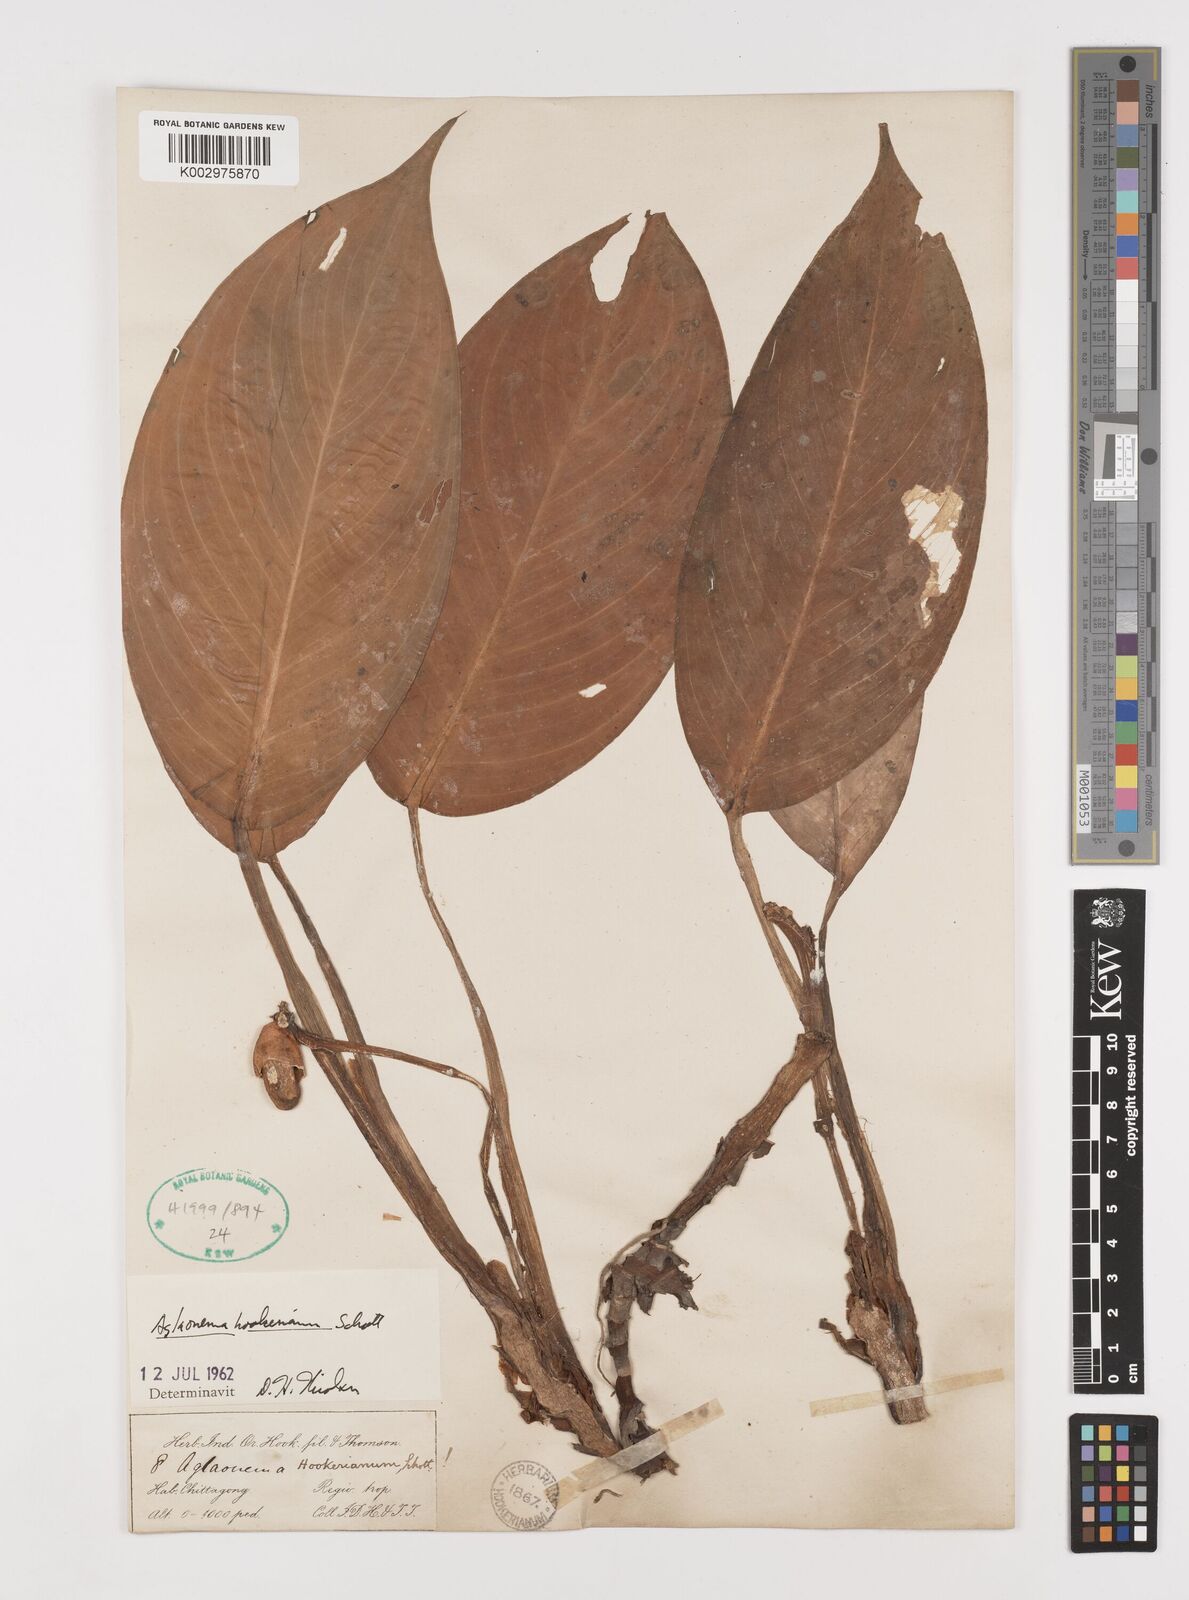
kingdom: Plantae
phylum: Tracheophyta
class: Liliopsida
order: Alismatales
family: Araceae
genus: Aglaonema
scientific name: Aglaonema hookerianum
